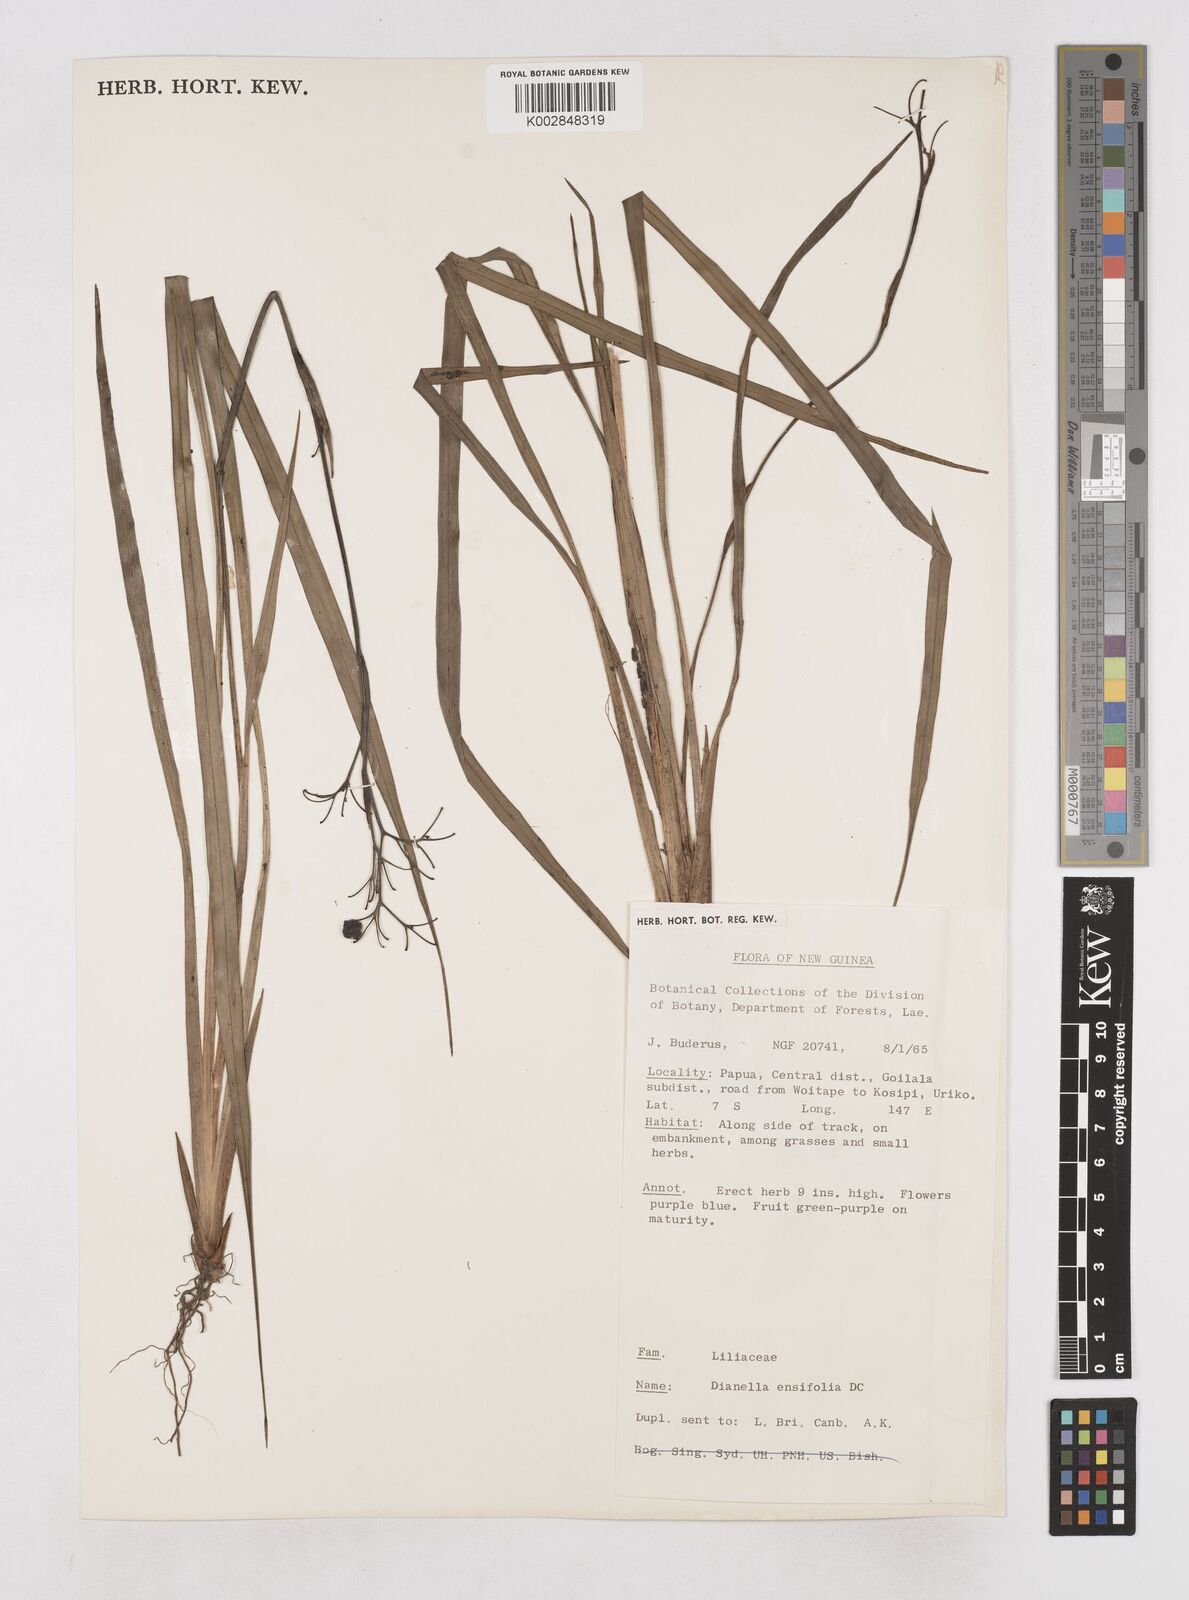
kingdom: Plantae
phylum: Tracheophyta
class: Liliopsida
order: Asparagales
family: Asphodelaceae
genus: Dianella
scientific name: Dianella ensifolia
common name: New zealand lilyplant
